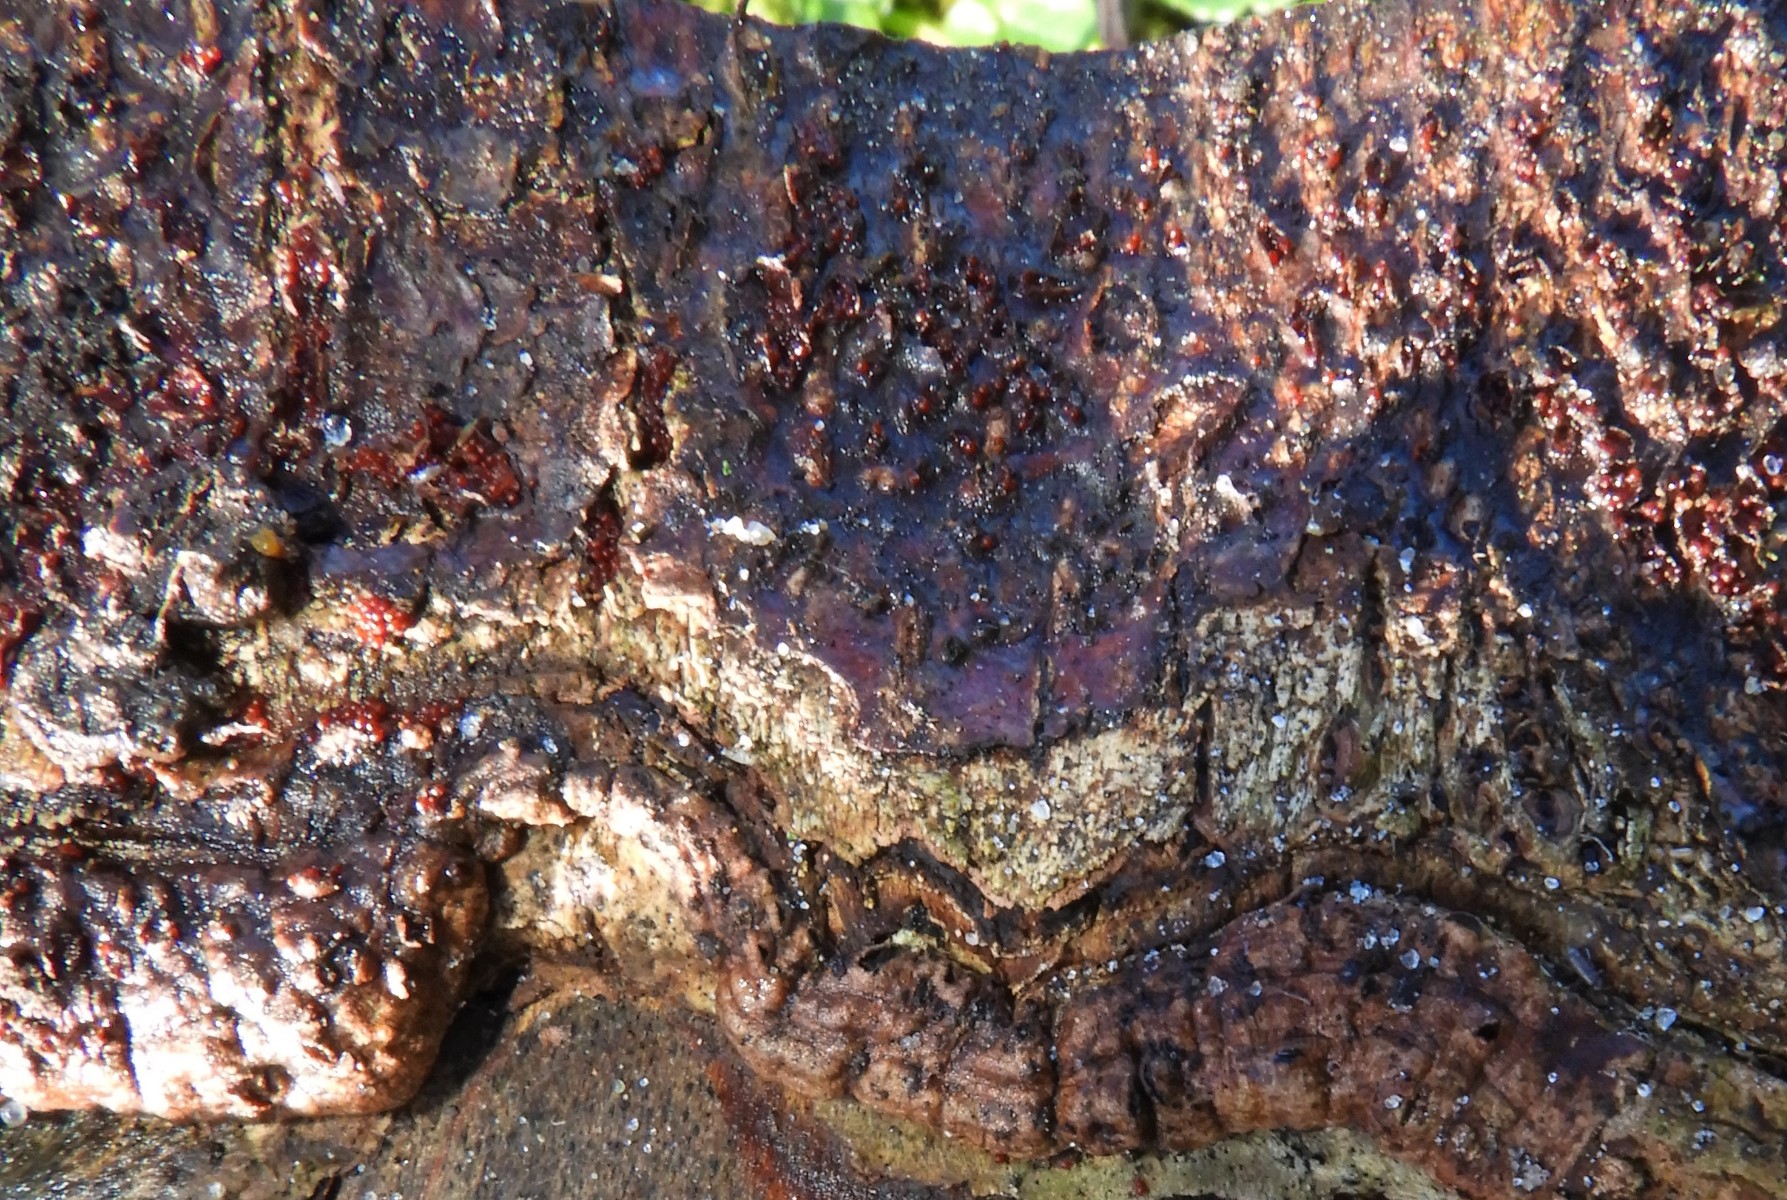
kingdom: Fungi
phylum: Ascomycota
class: Sordariomycetes
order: Hypocreales
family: Nectriaceae
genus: Neonectria
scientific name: Neonectria coccinea
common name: bøgebark-cinnobersvamp
